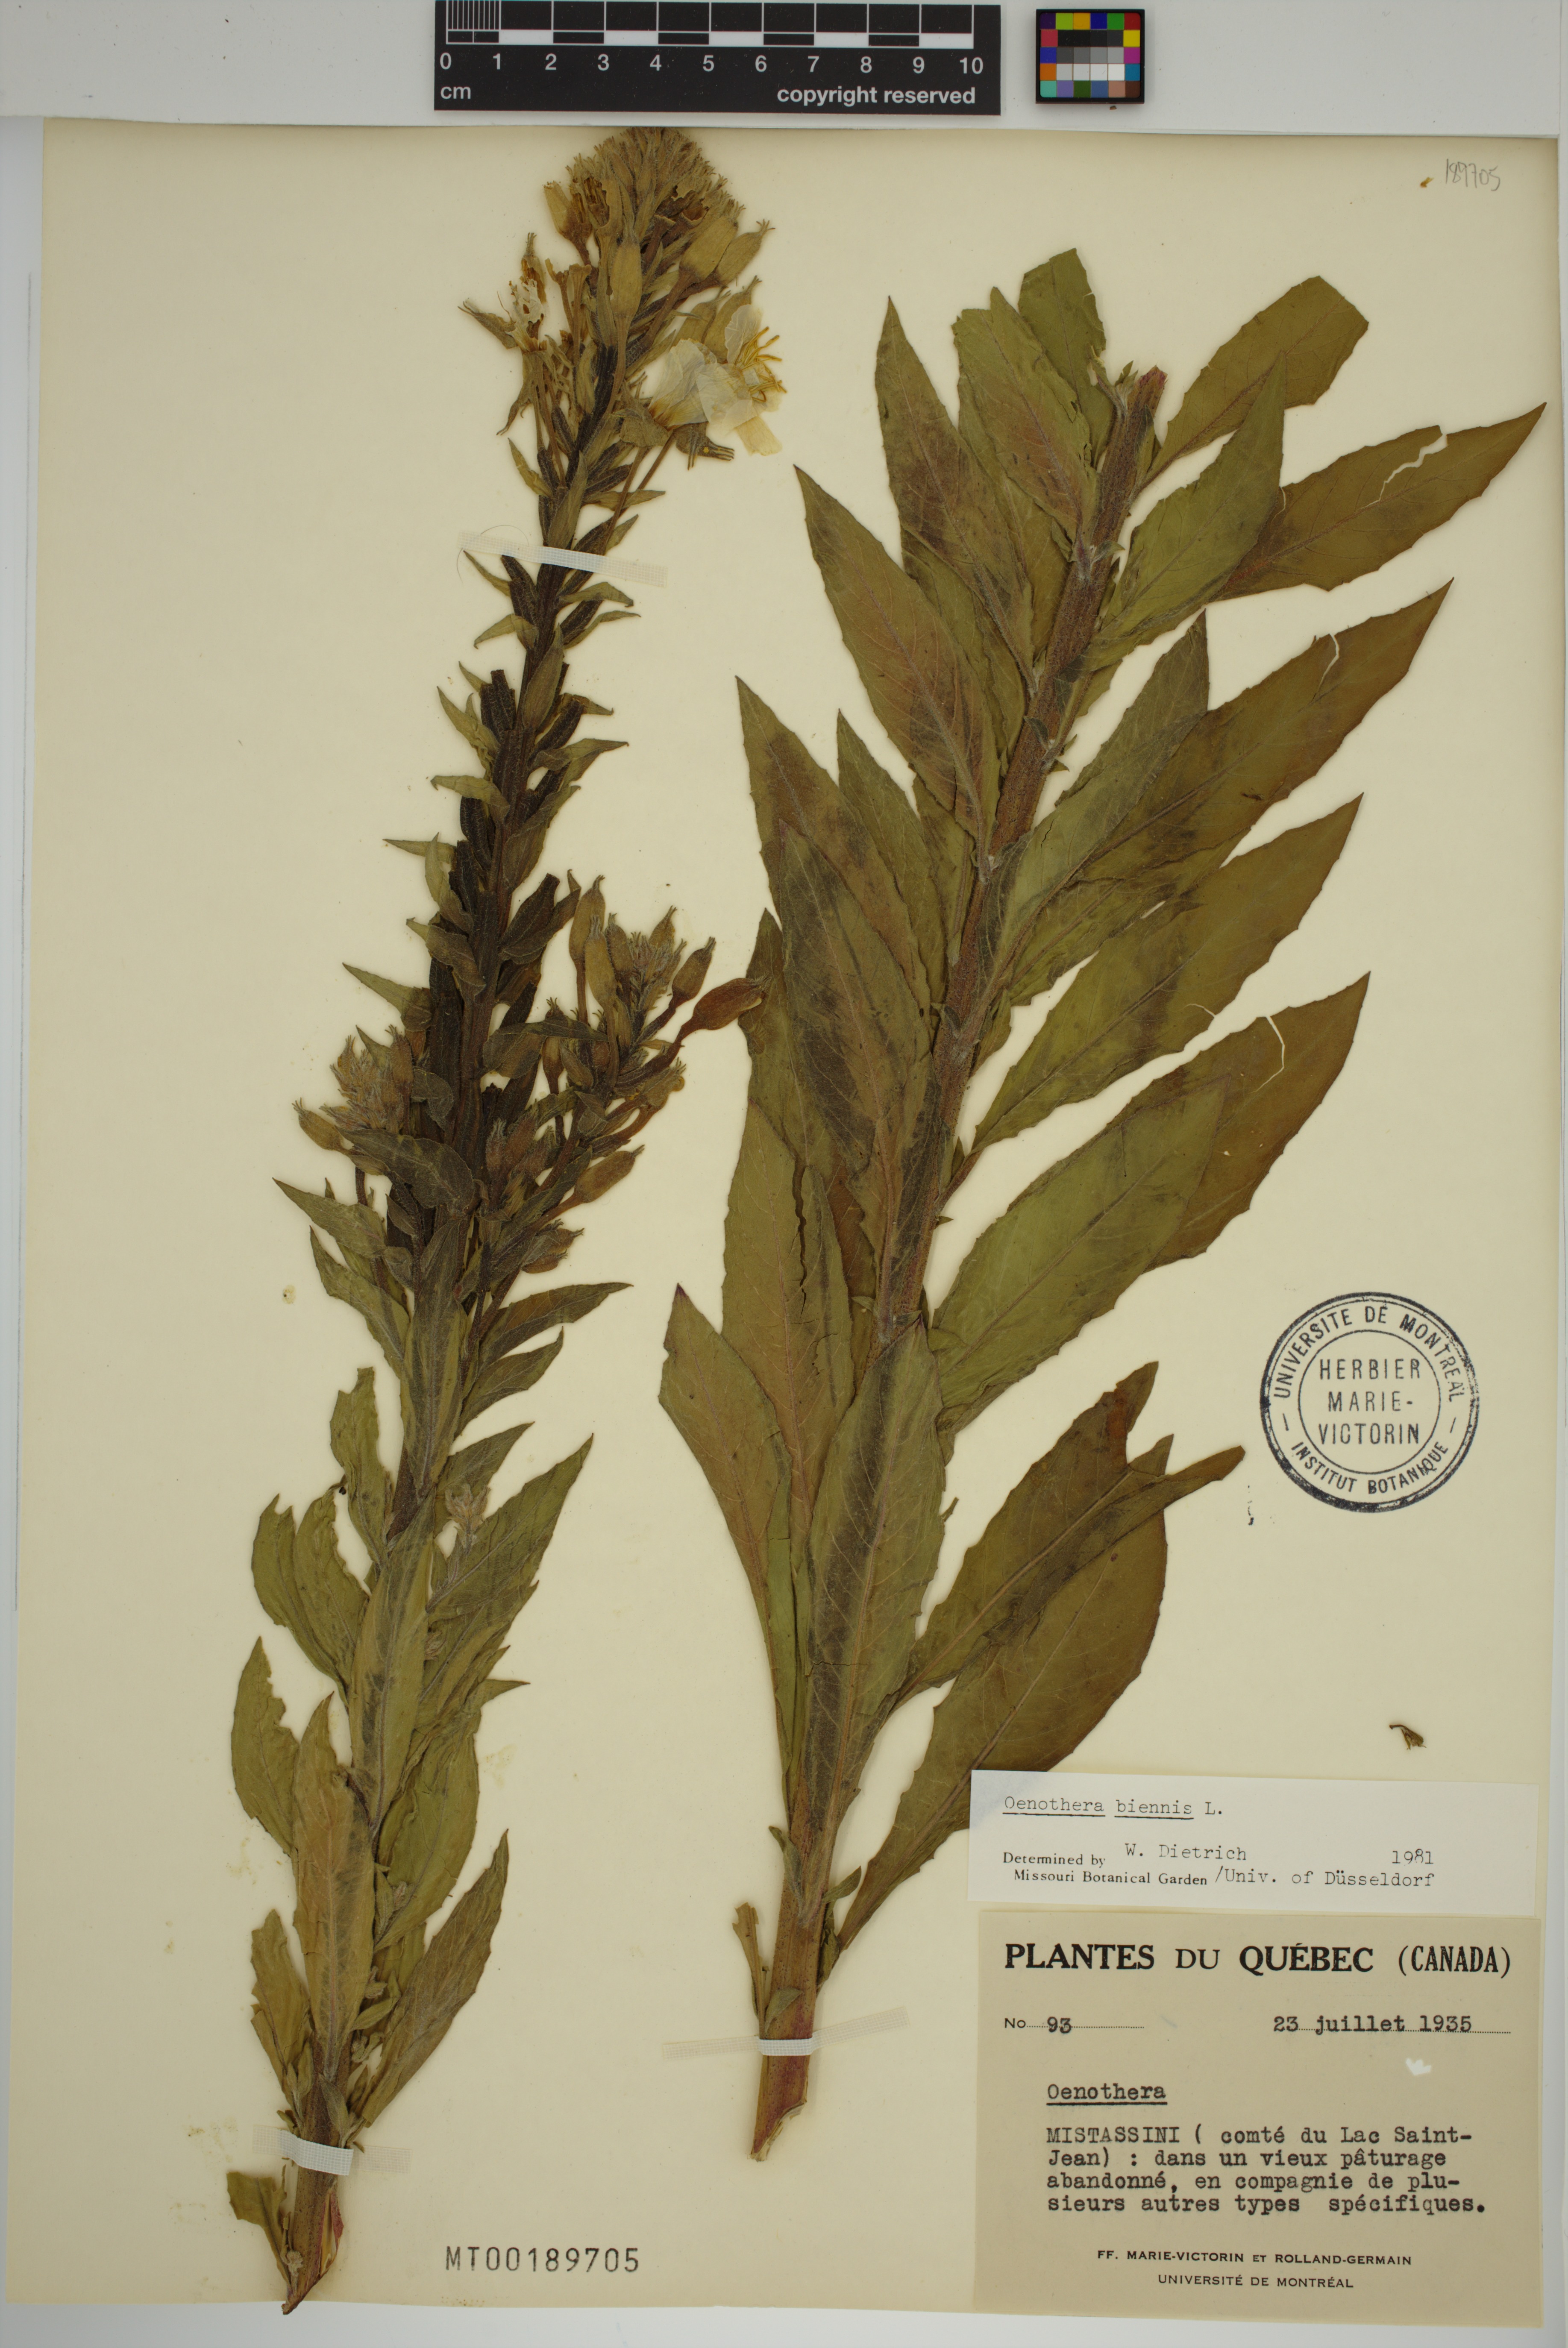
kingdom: Plantae
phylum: Tracheophyta
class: Magnoliopsida
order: Myrtales
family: Onagraceae
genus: Oenothera
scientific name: Oenothera biennis
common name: Common evening-primrose
